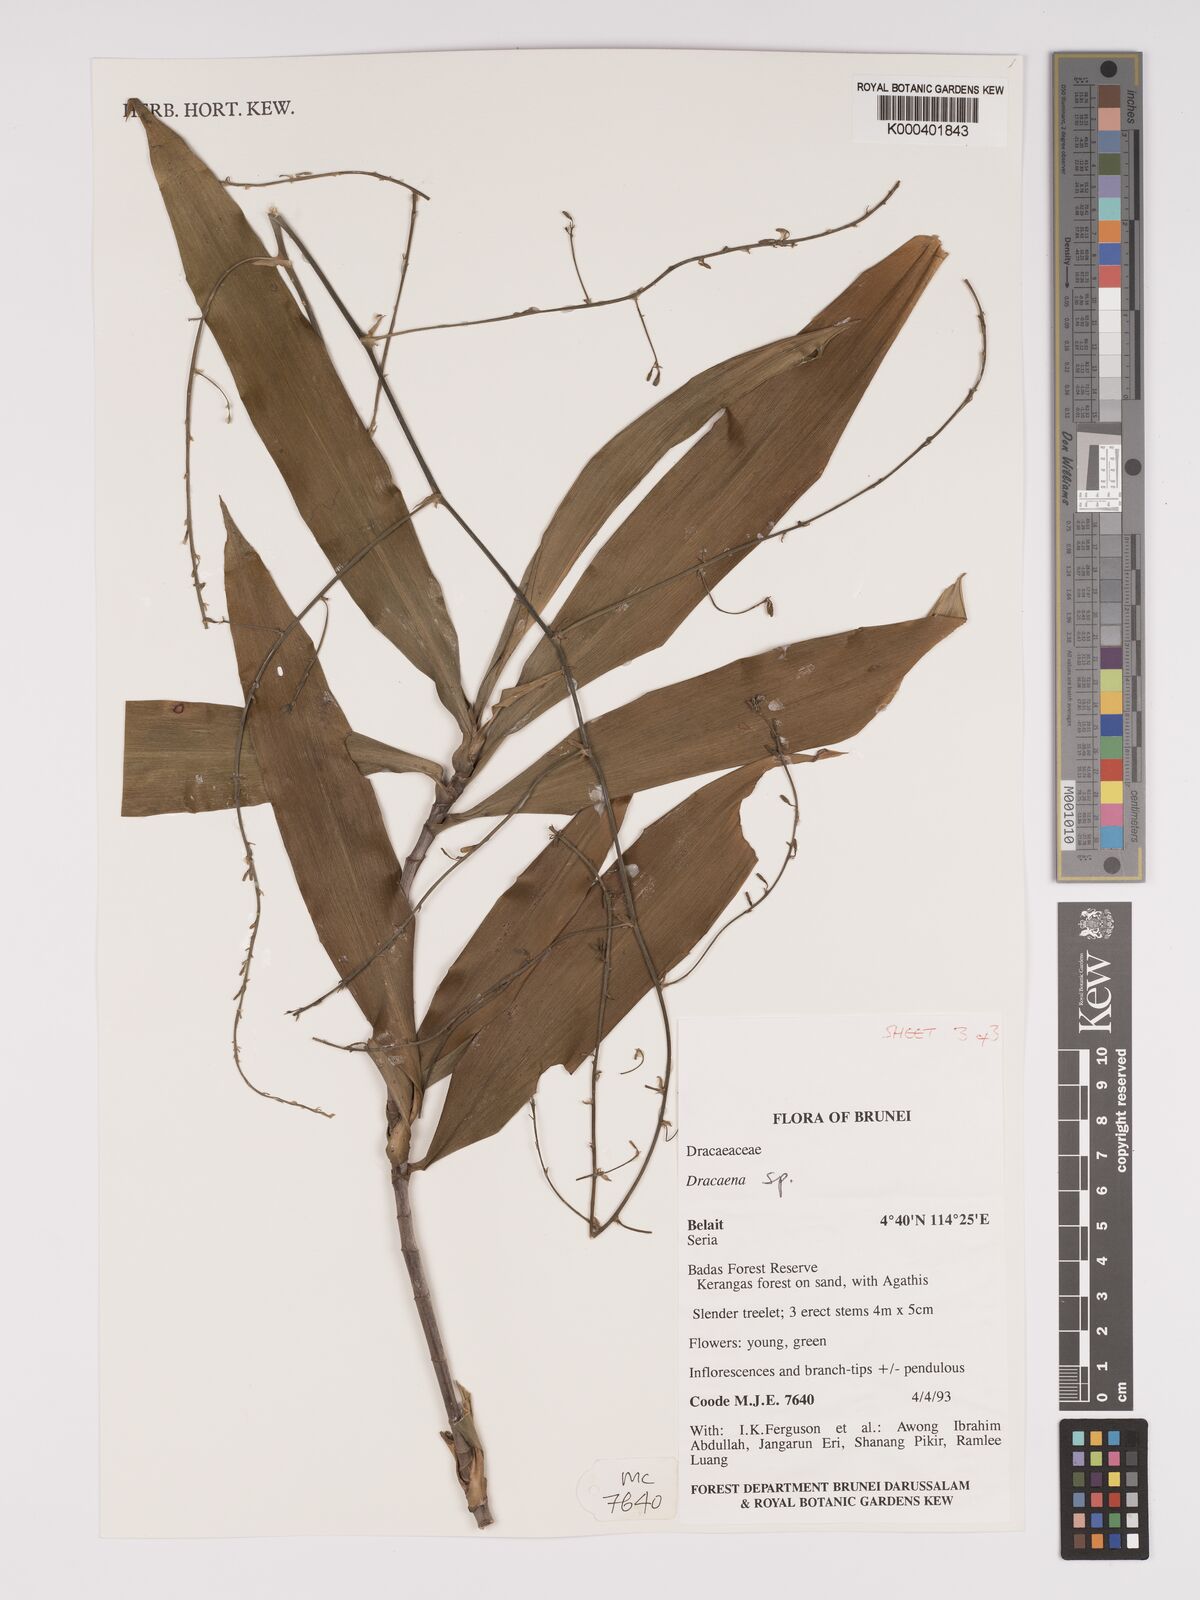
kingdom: Plantae
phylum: Tracheophyta
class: Liliopsida
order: Asparagales
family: Asparagaceae
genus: Dracaena
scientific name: Dracaena
